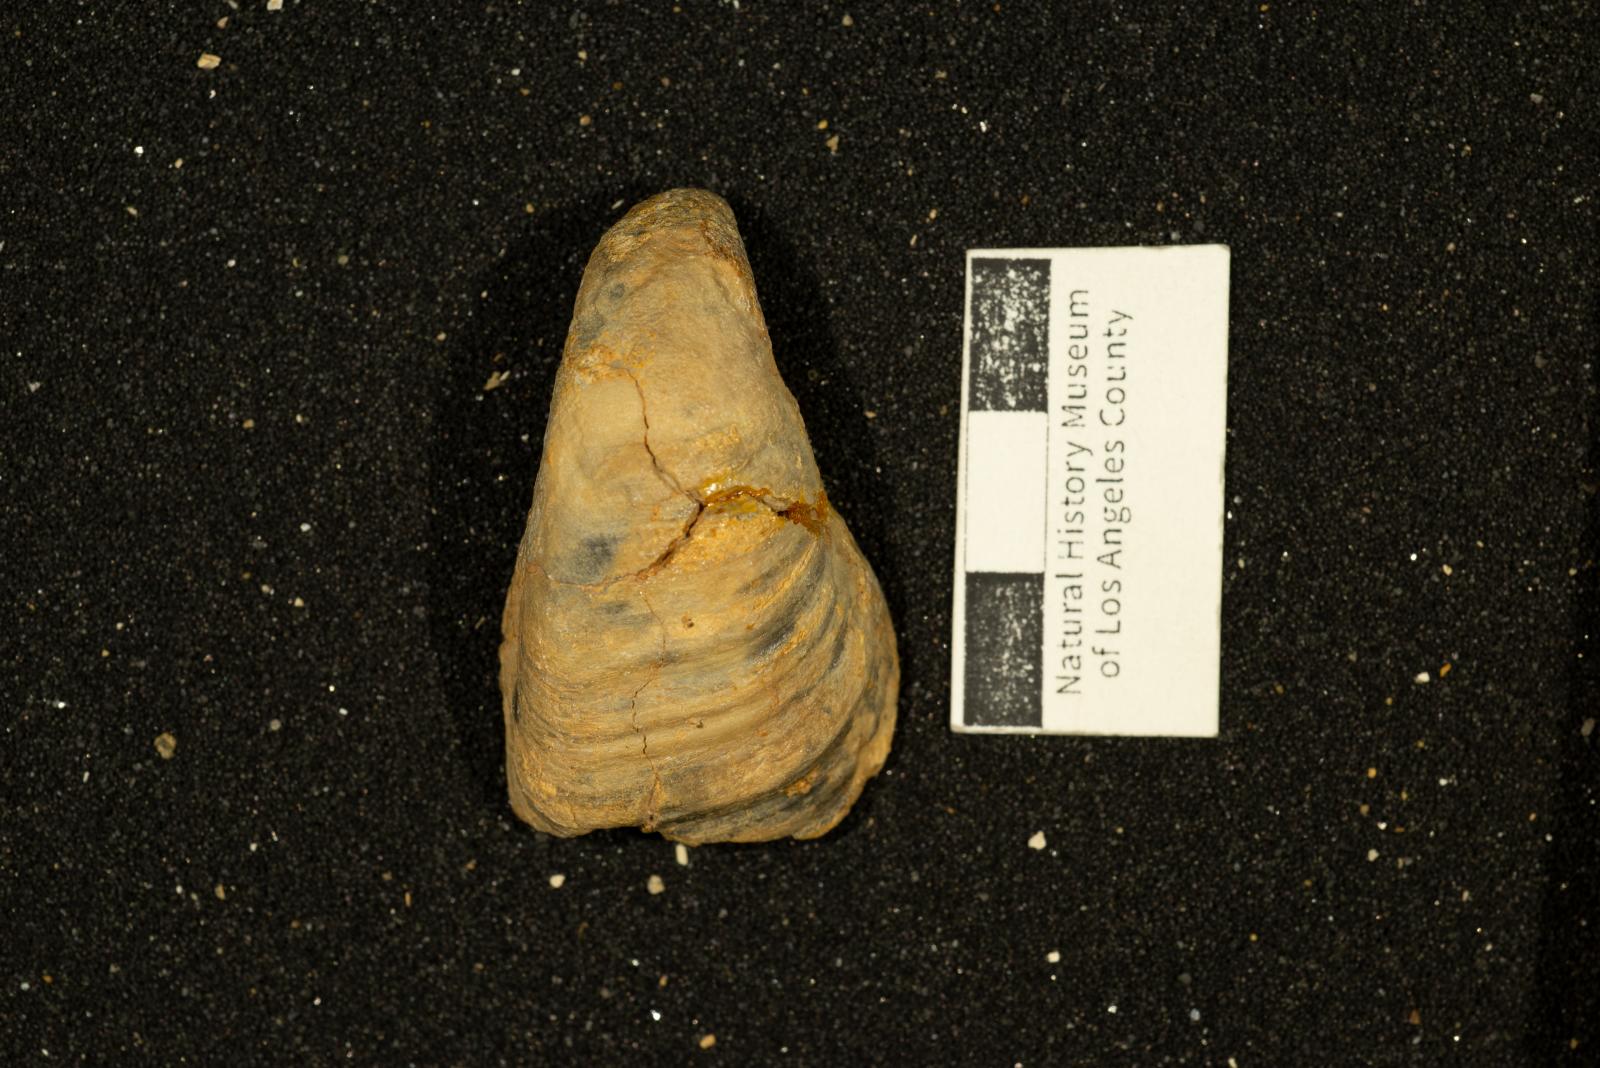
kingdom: Animalia
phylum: Mollusca
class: Bivalvia
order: Carditida
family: Astartidae
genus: Opis
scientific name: Opis Corbula triangulata
